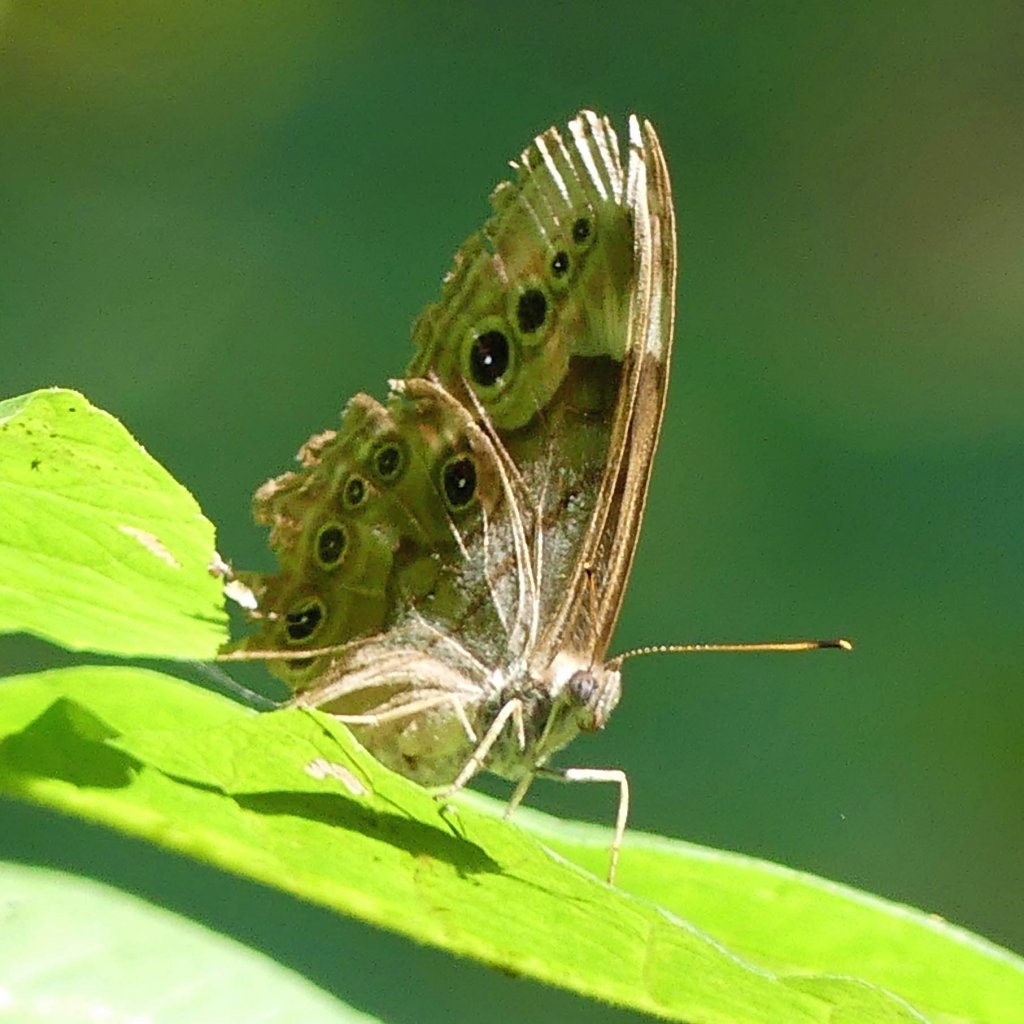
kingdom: Animalia
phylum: Arthropoda
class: Insecta
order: Lepidoptera
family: Nymphalidae
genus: Lethe
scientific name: Lethe anthedon
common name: Northern Pearly-Eye
